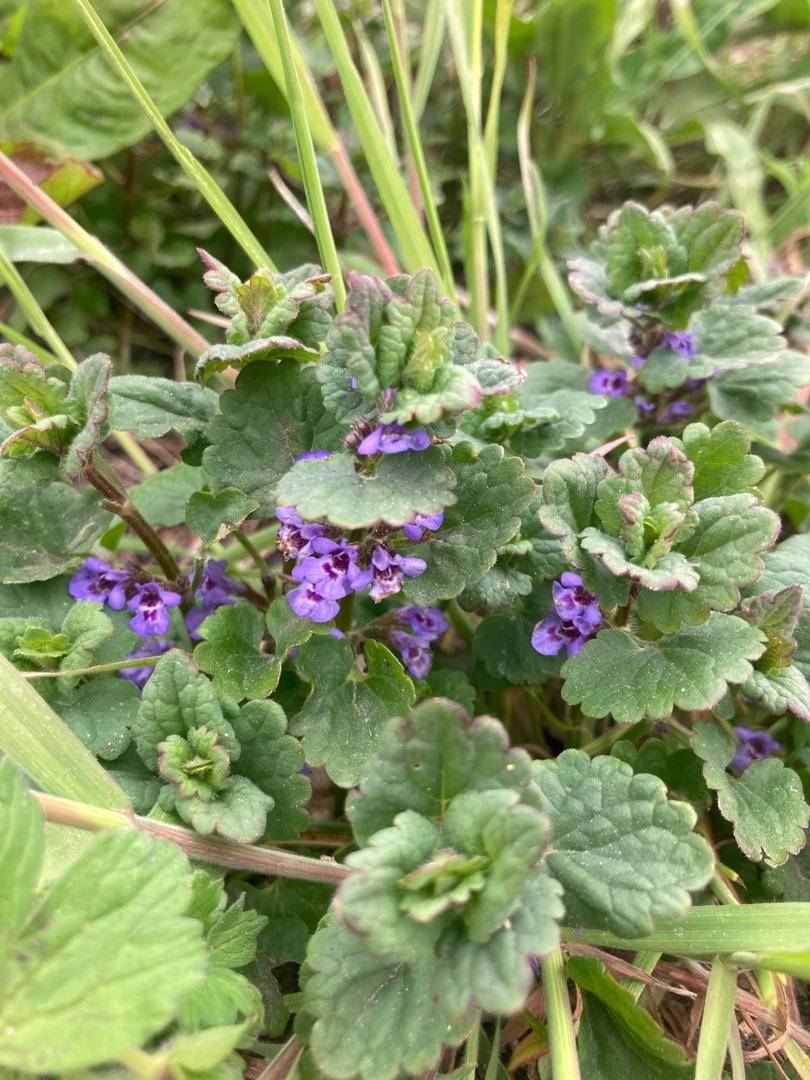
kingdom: Plantae
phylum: Tracheophyta
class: Magnoliopsida
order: Lamiales
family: Lamiaceae
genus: Glechoma
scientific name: Glechoma hederacea
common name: Korsknap
